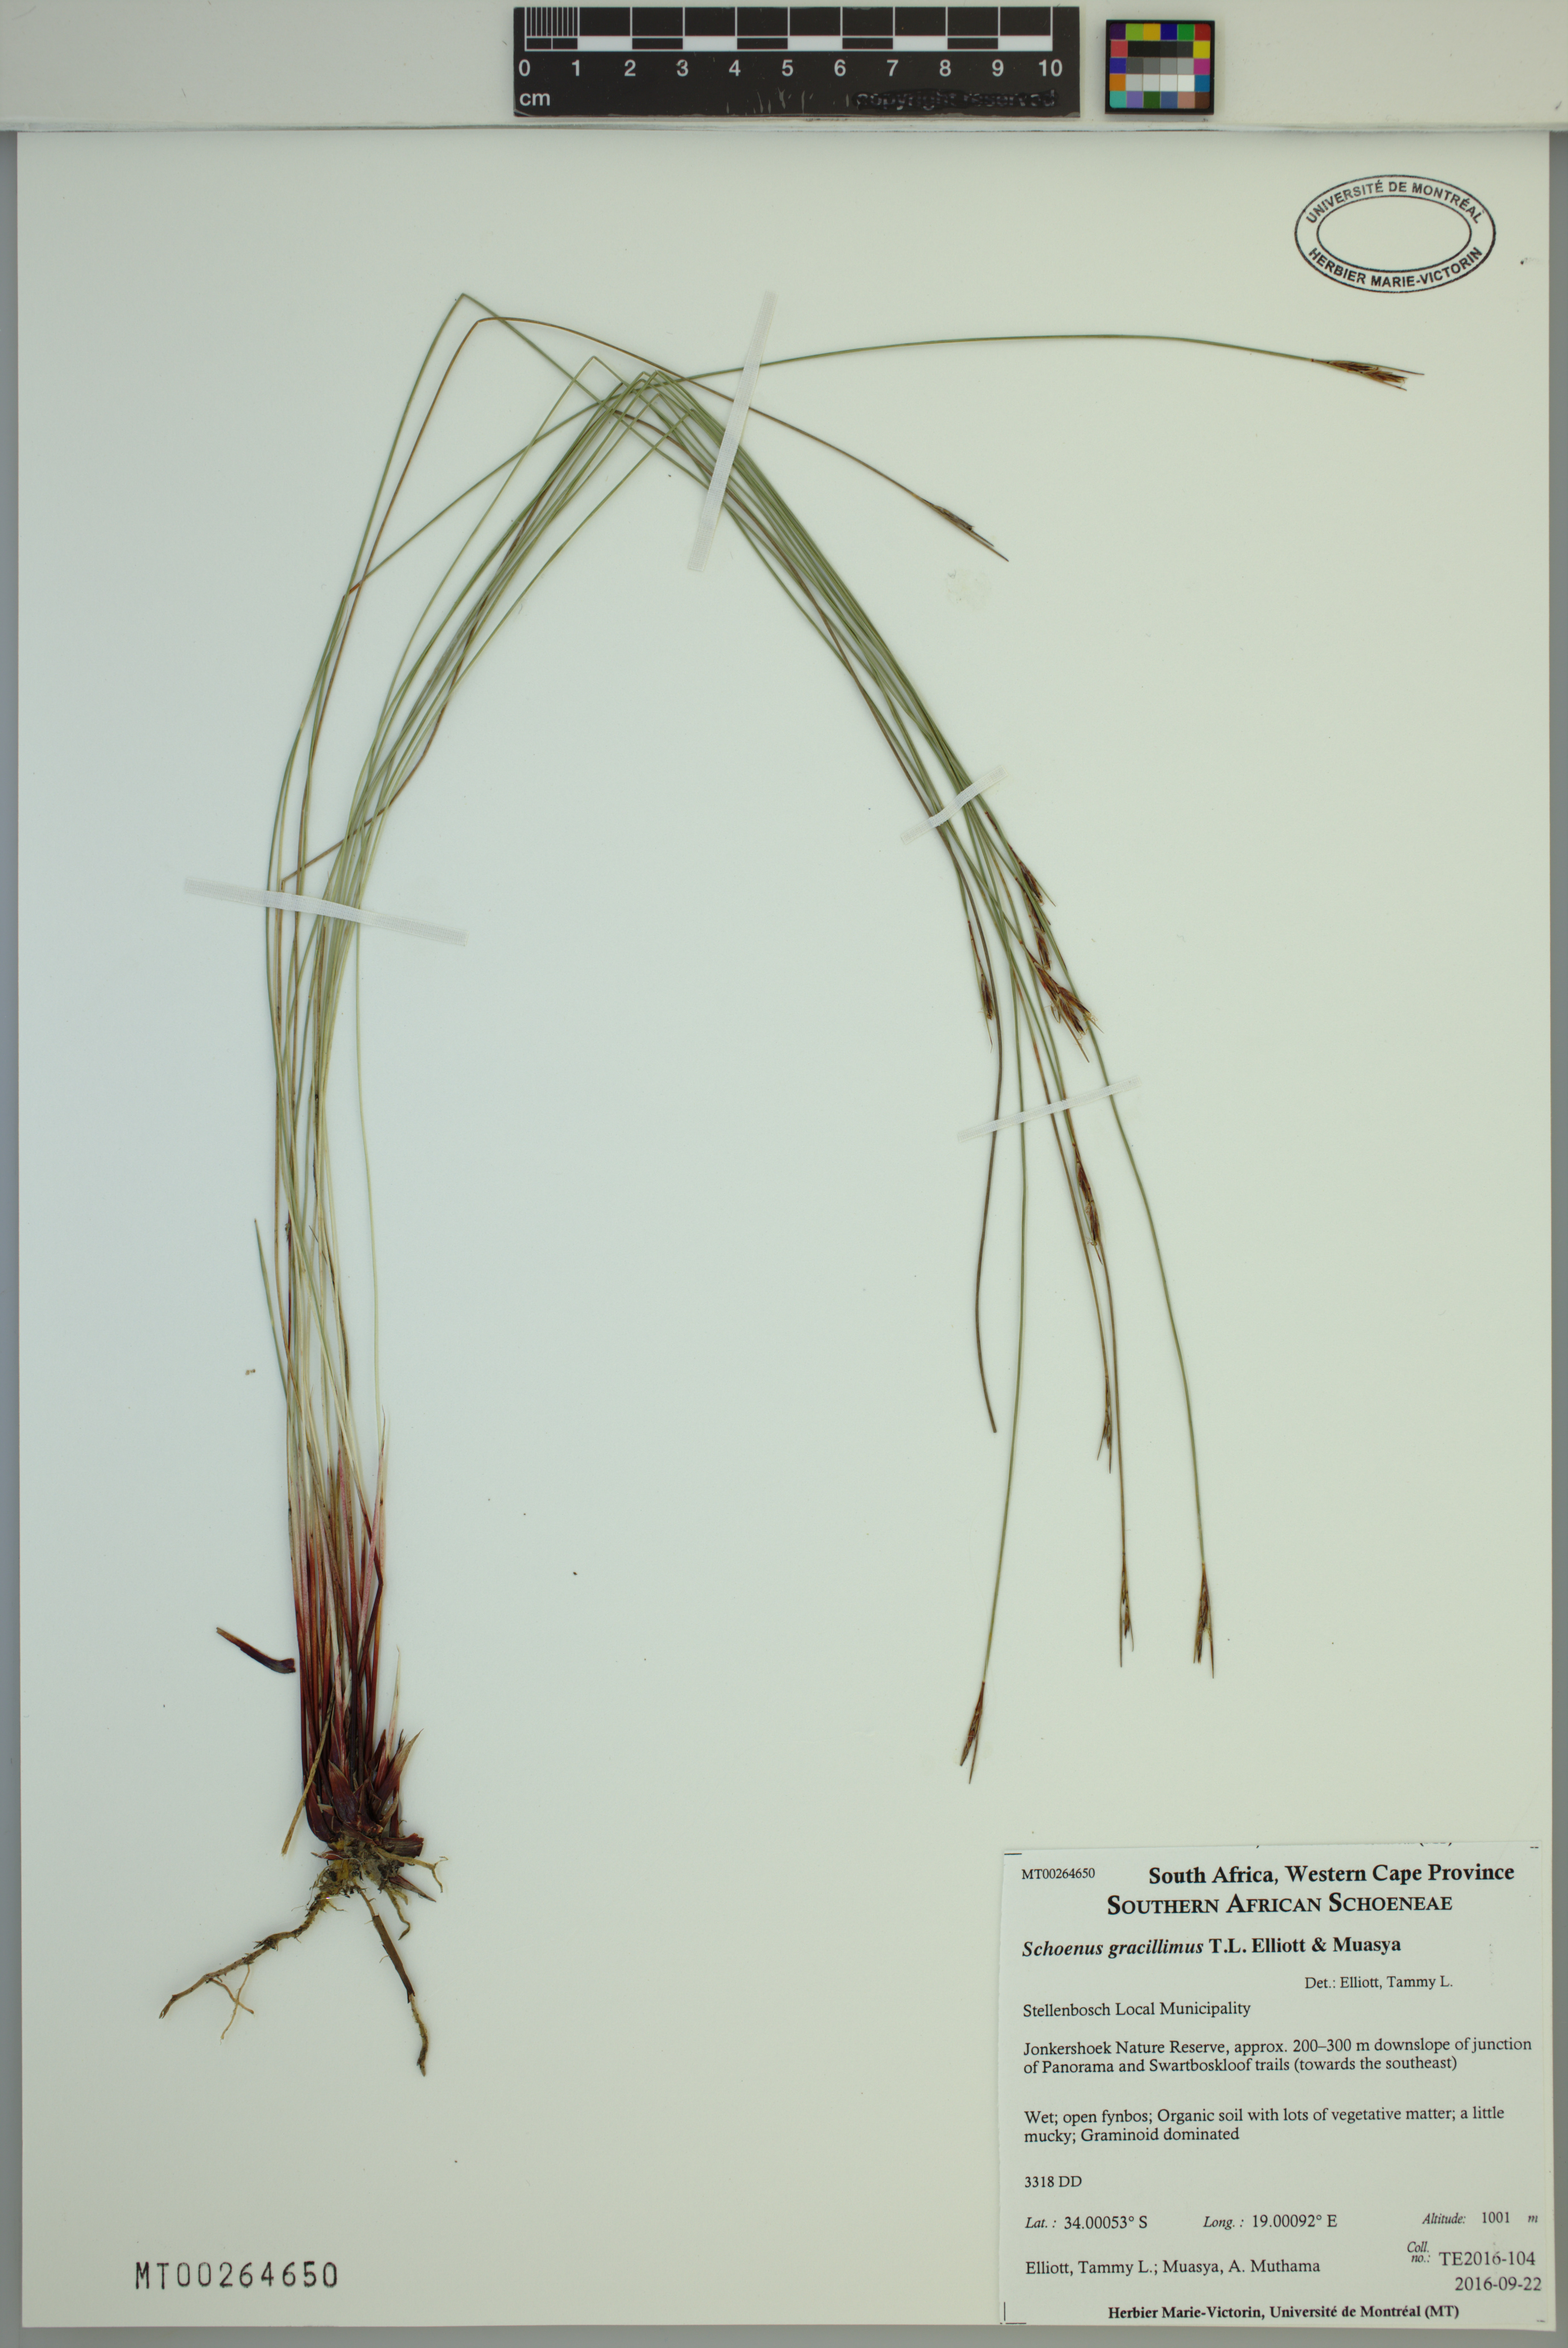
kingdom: Plantae
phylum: Tracheophyta
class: Liliopsida
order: Poales
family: Cyperaceae
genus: Schoenus
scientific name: Schoenus gracillimus
